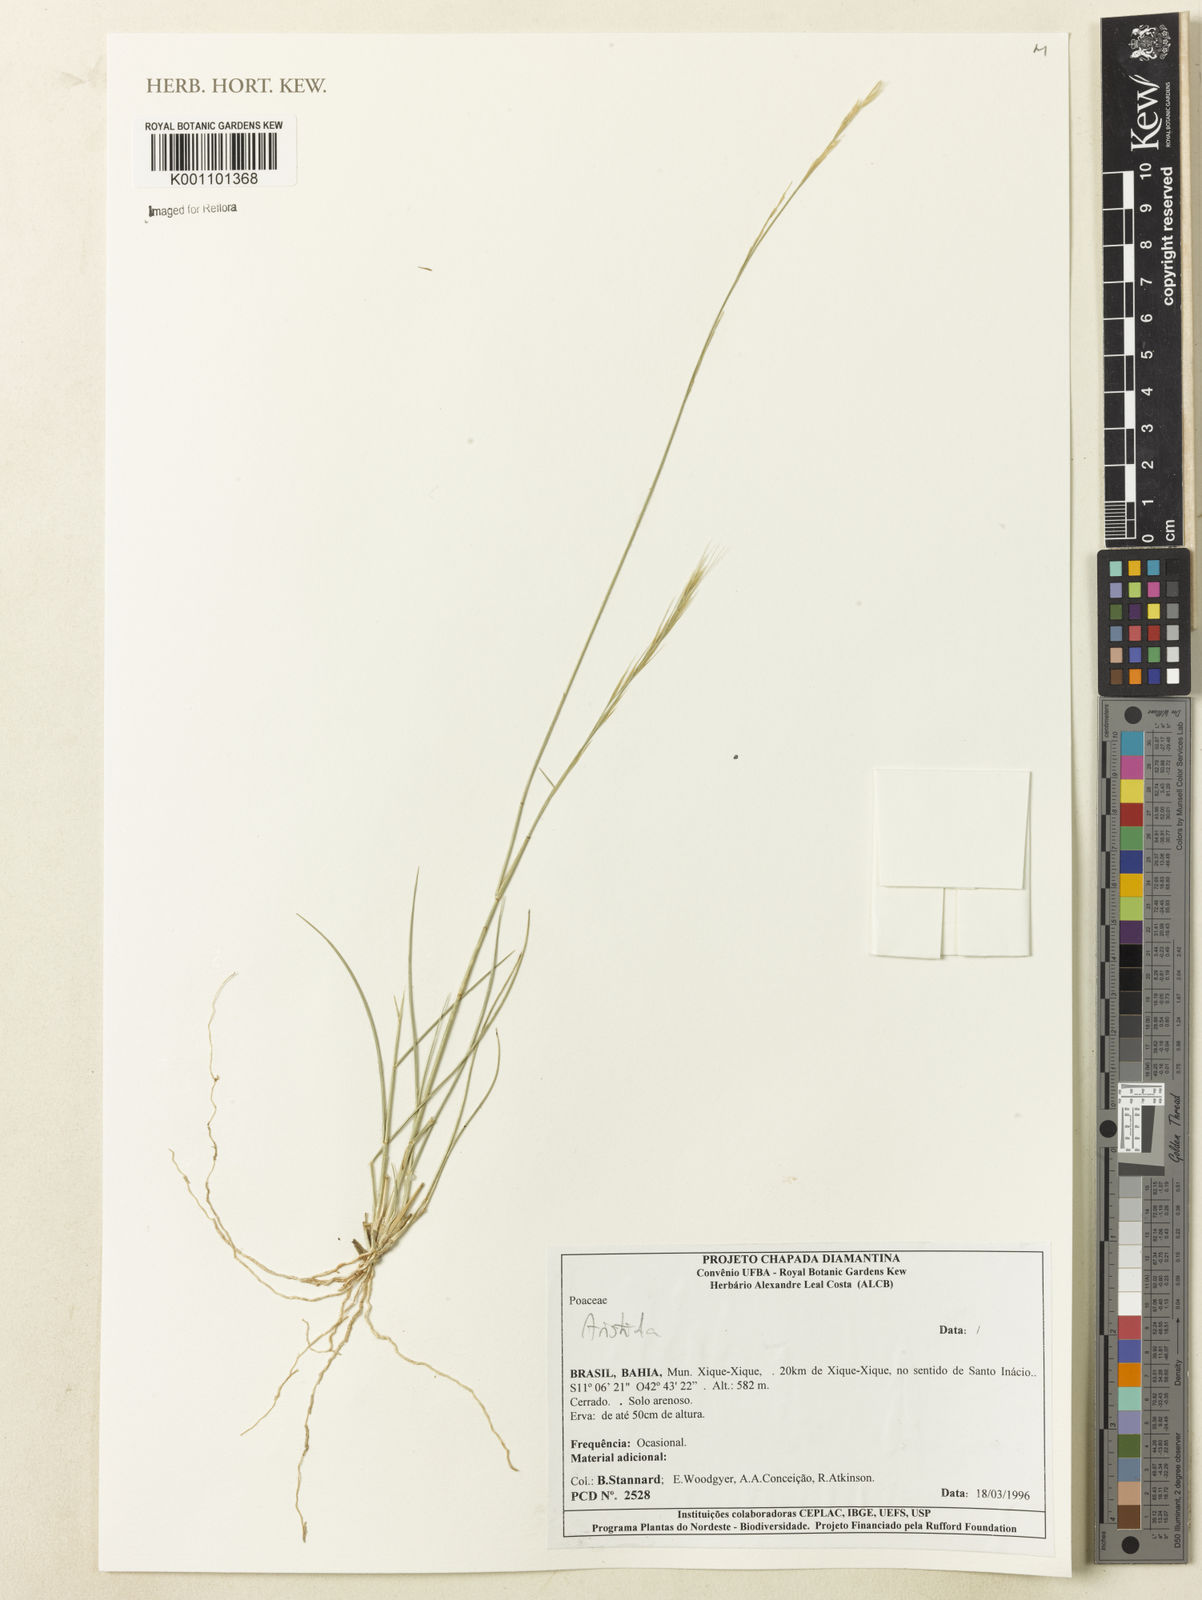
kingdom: Plantae
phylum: Tracheophyta
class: Liliopsida
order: Poales
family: Poaceae
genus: Aristida
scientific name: Aristida
